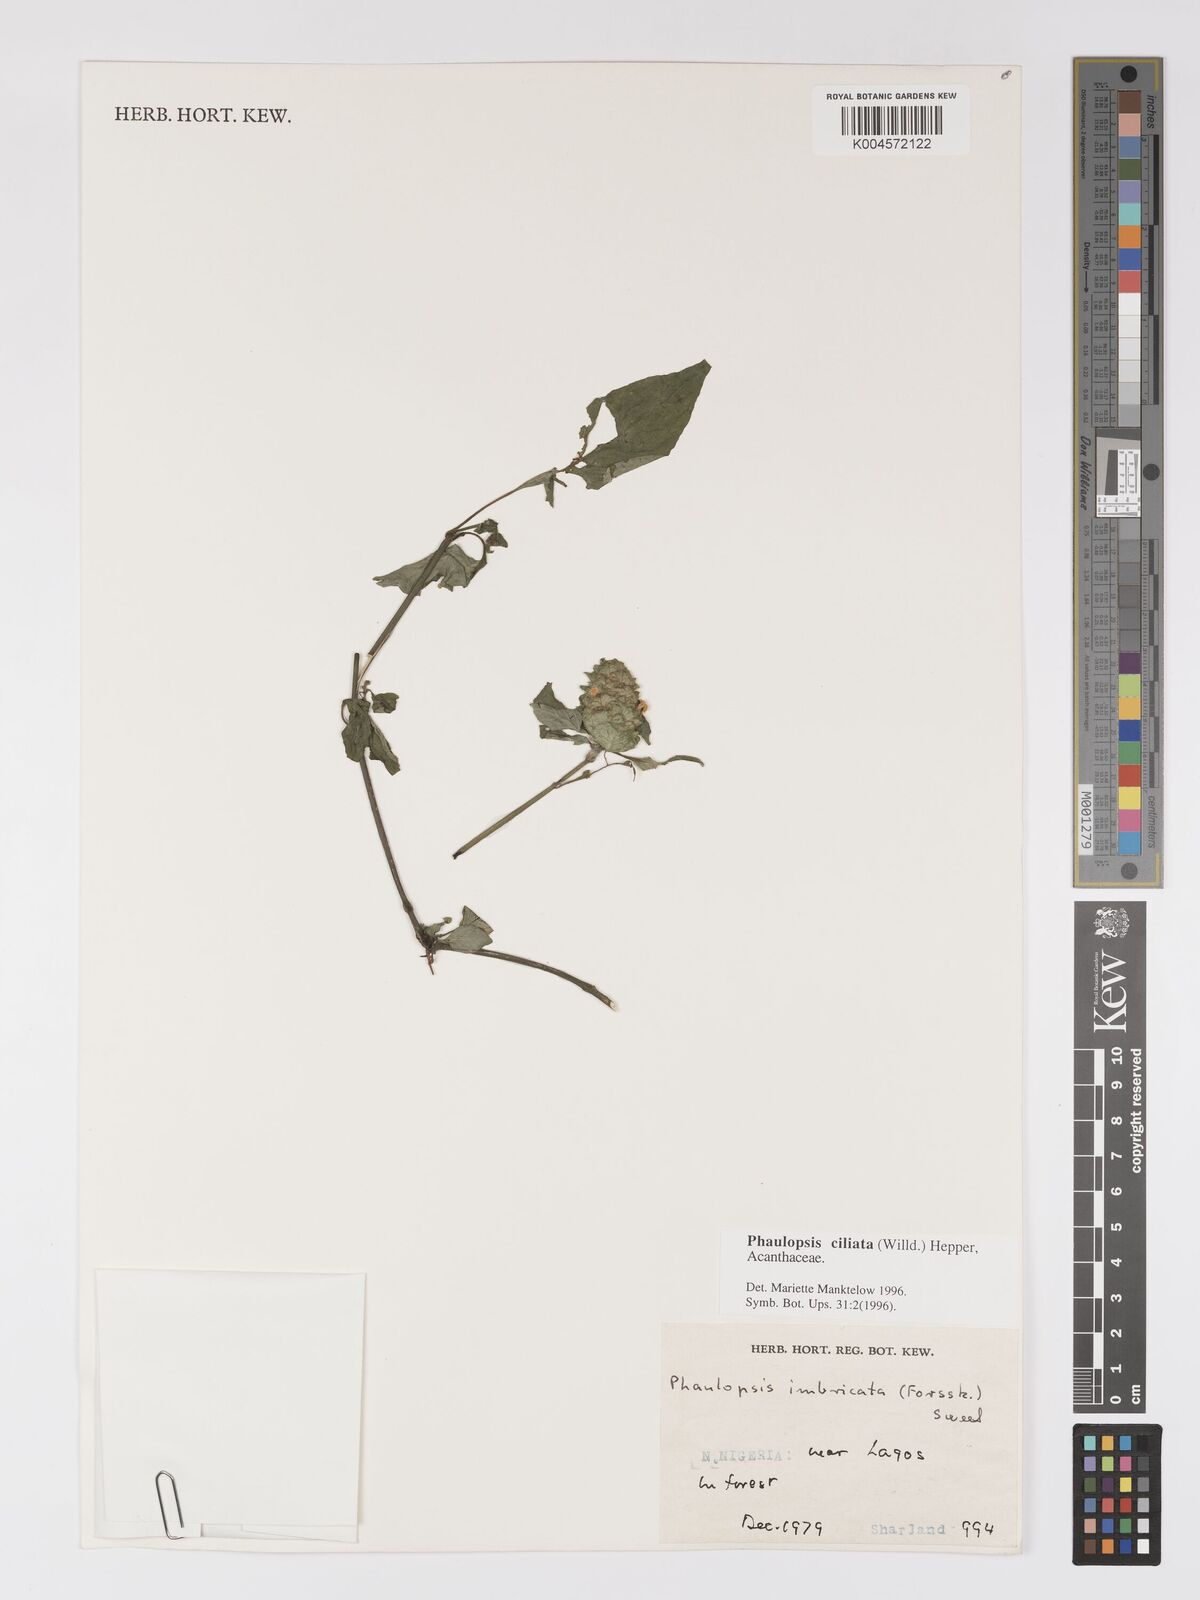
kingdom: Plantae
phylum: Tracheophyta
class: Magnoliopsida
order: Lamiales
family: Acanthaceae
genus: Phaulopsis
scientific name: Phaulopsis ciliata
